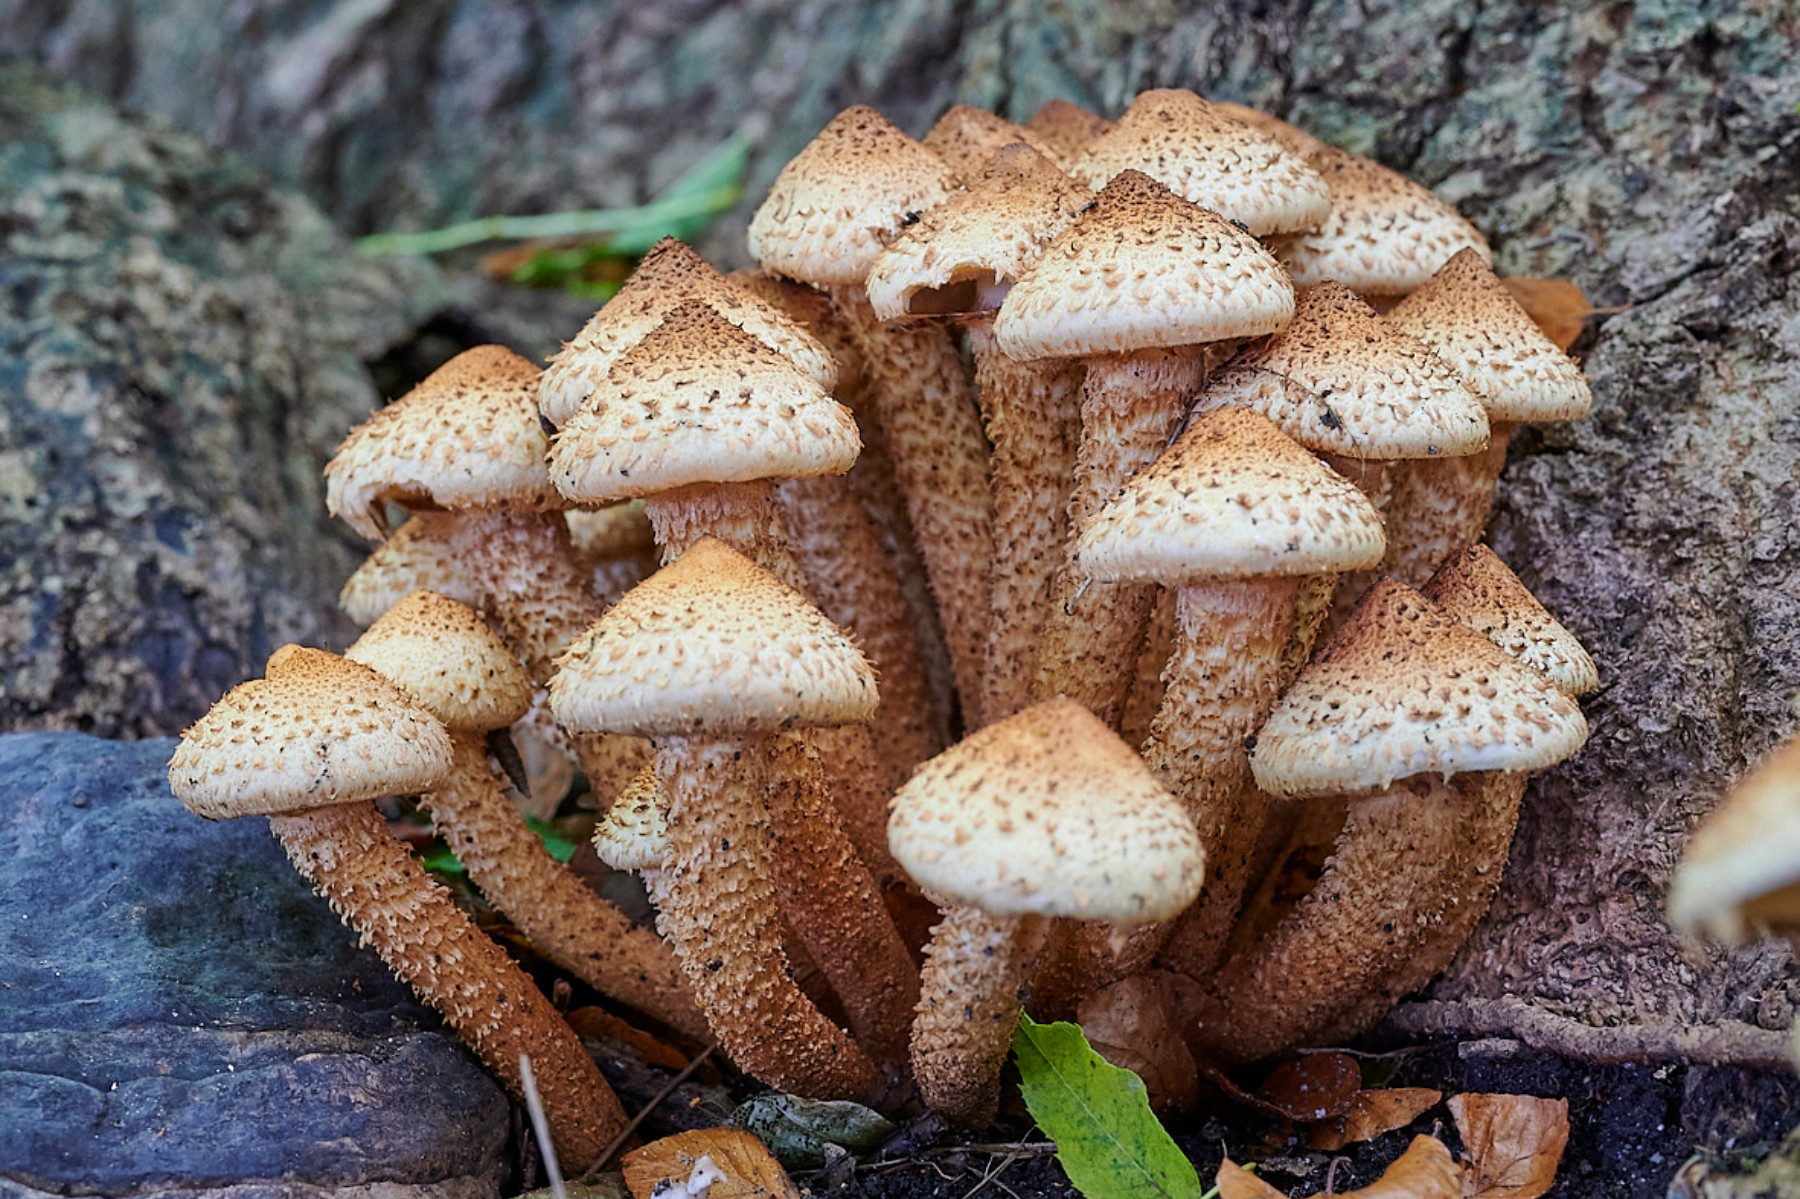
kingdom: Fungi
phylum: Basidiomycota
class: Agaricomycetes
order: Agaricales
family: Strophariaceae
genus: Pholiota
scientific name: Pholiota squarrosa
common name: krumskællet skælhat
